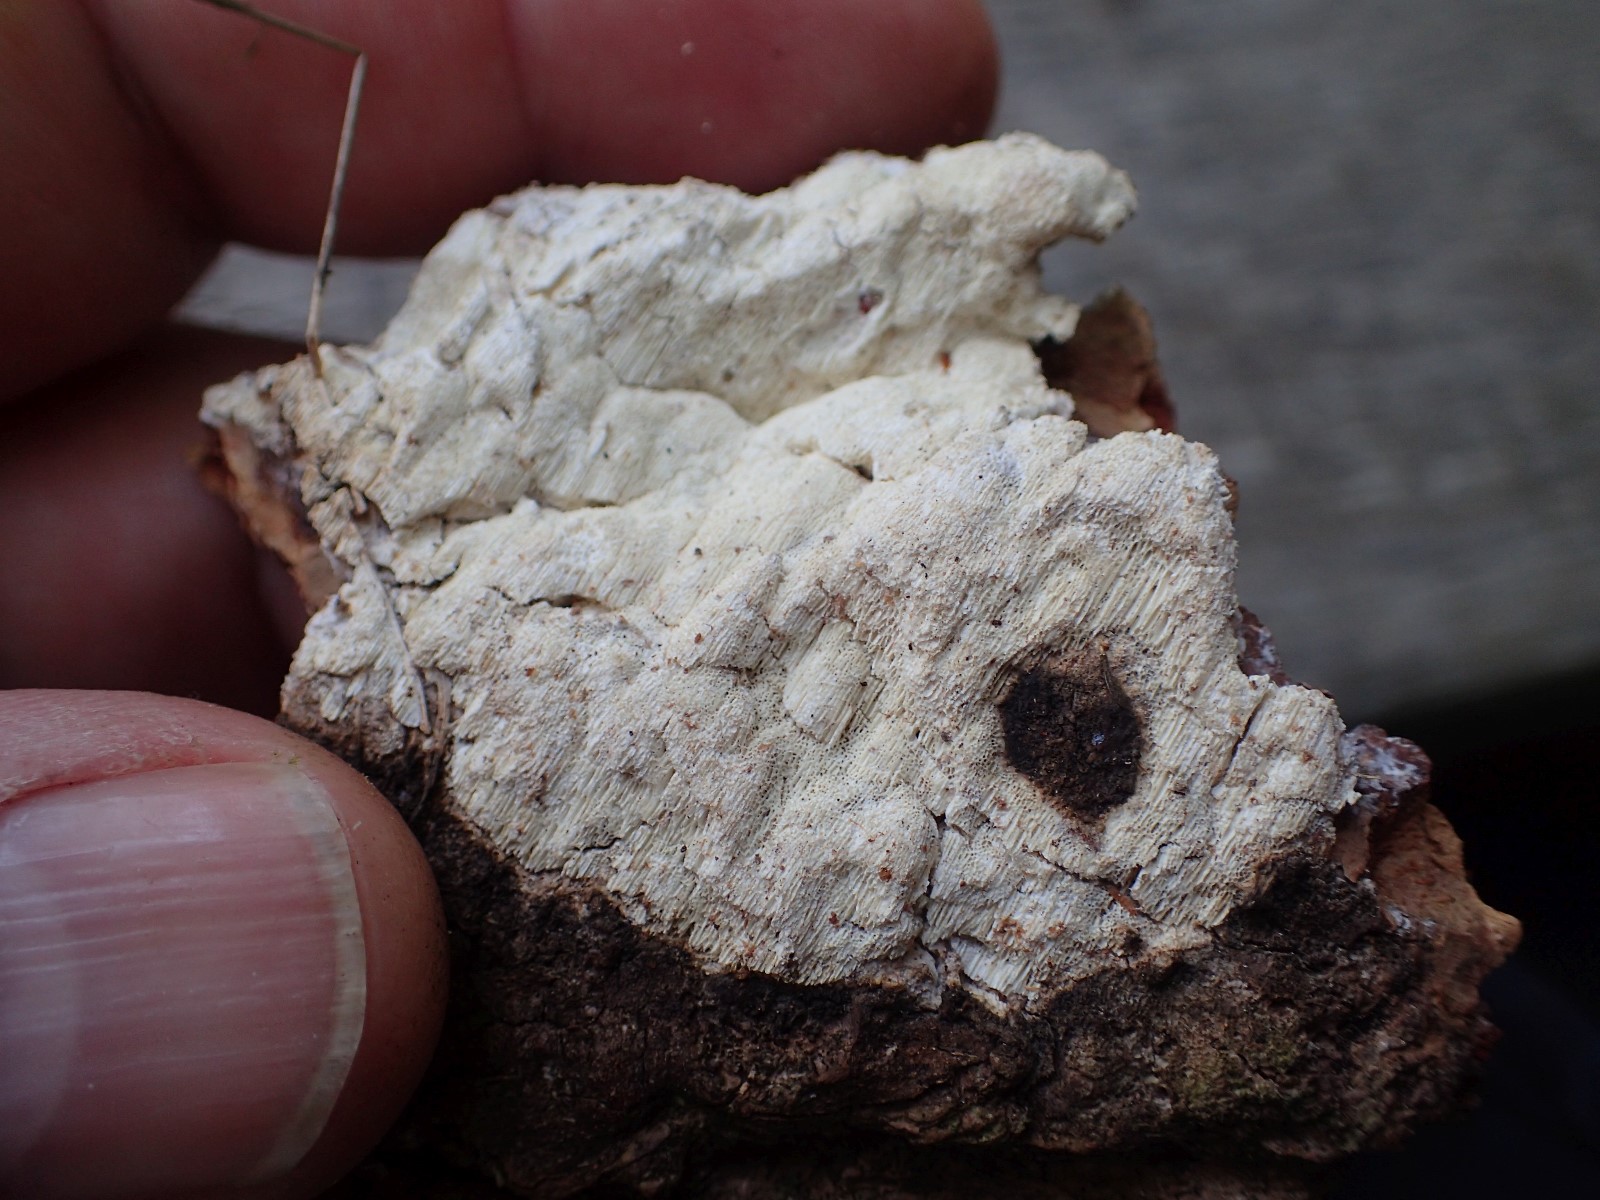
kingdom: Fungi
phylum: Basidiomycota
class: Agaricomycetes
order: Polyporales
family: Fomitopsidaceae
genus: Daedalea
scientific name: Daedalea xantha
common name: gul sejporesvamp
